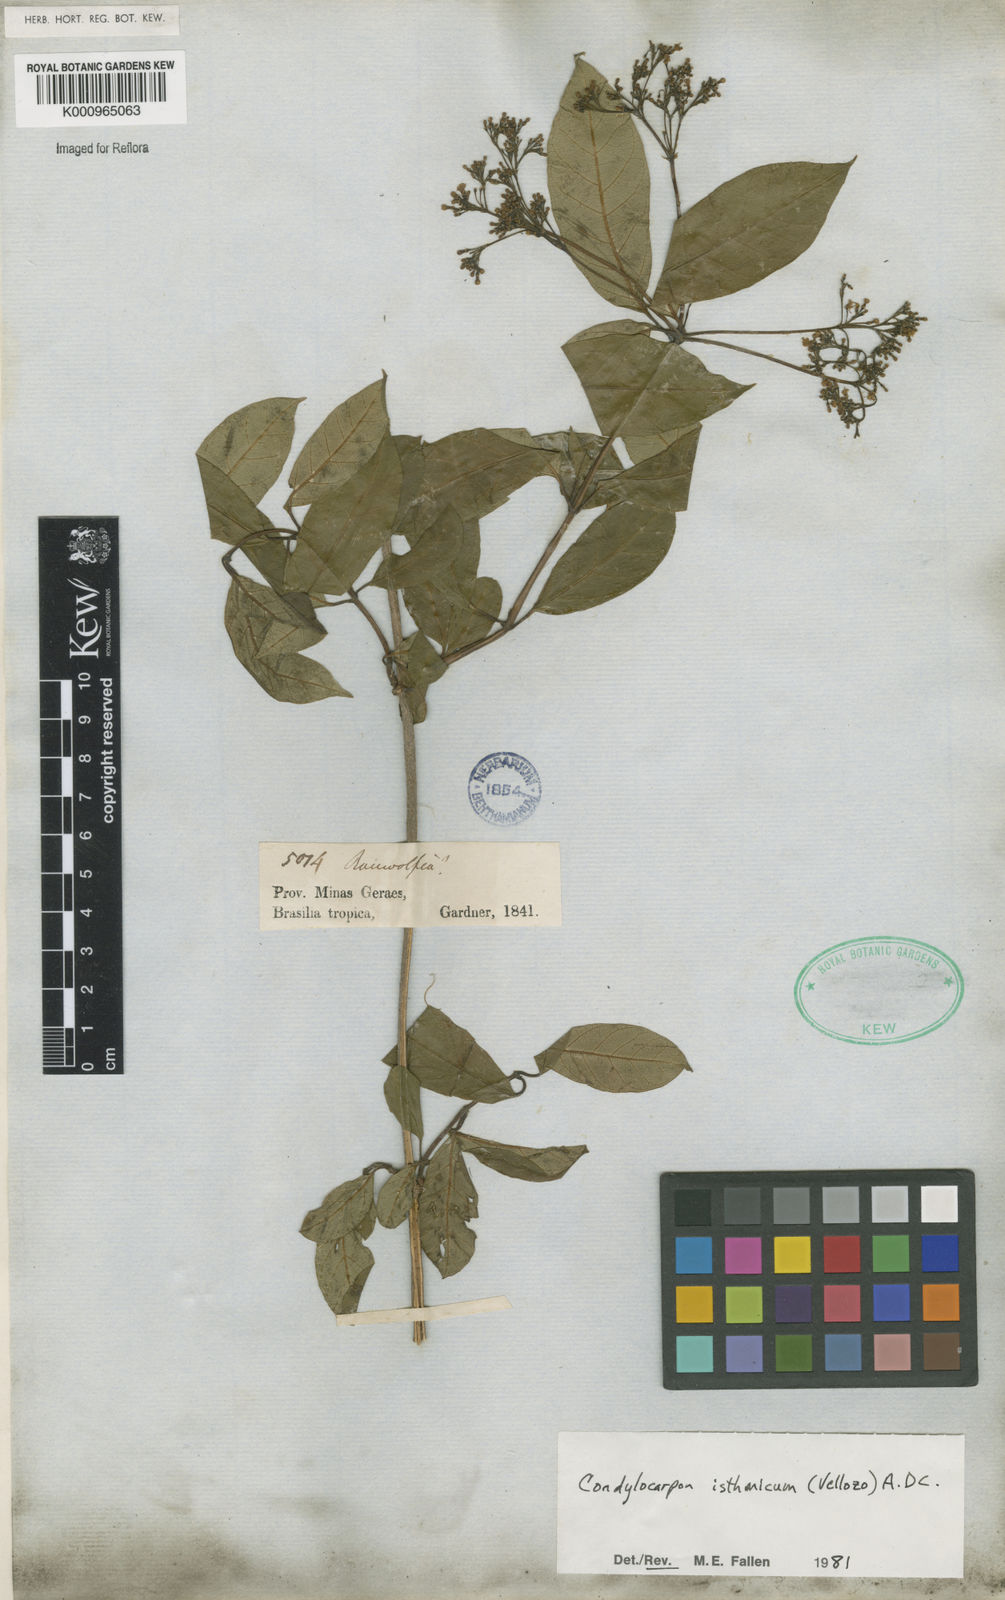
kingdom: Plantae
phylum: Tracheophyta
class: Magnoliopsida
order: Gentianales
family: Apocynaceae
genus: Condylocarpon
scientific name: Condylocarpon isthmicum
